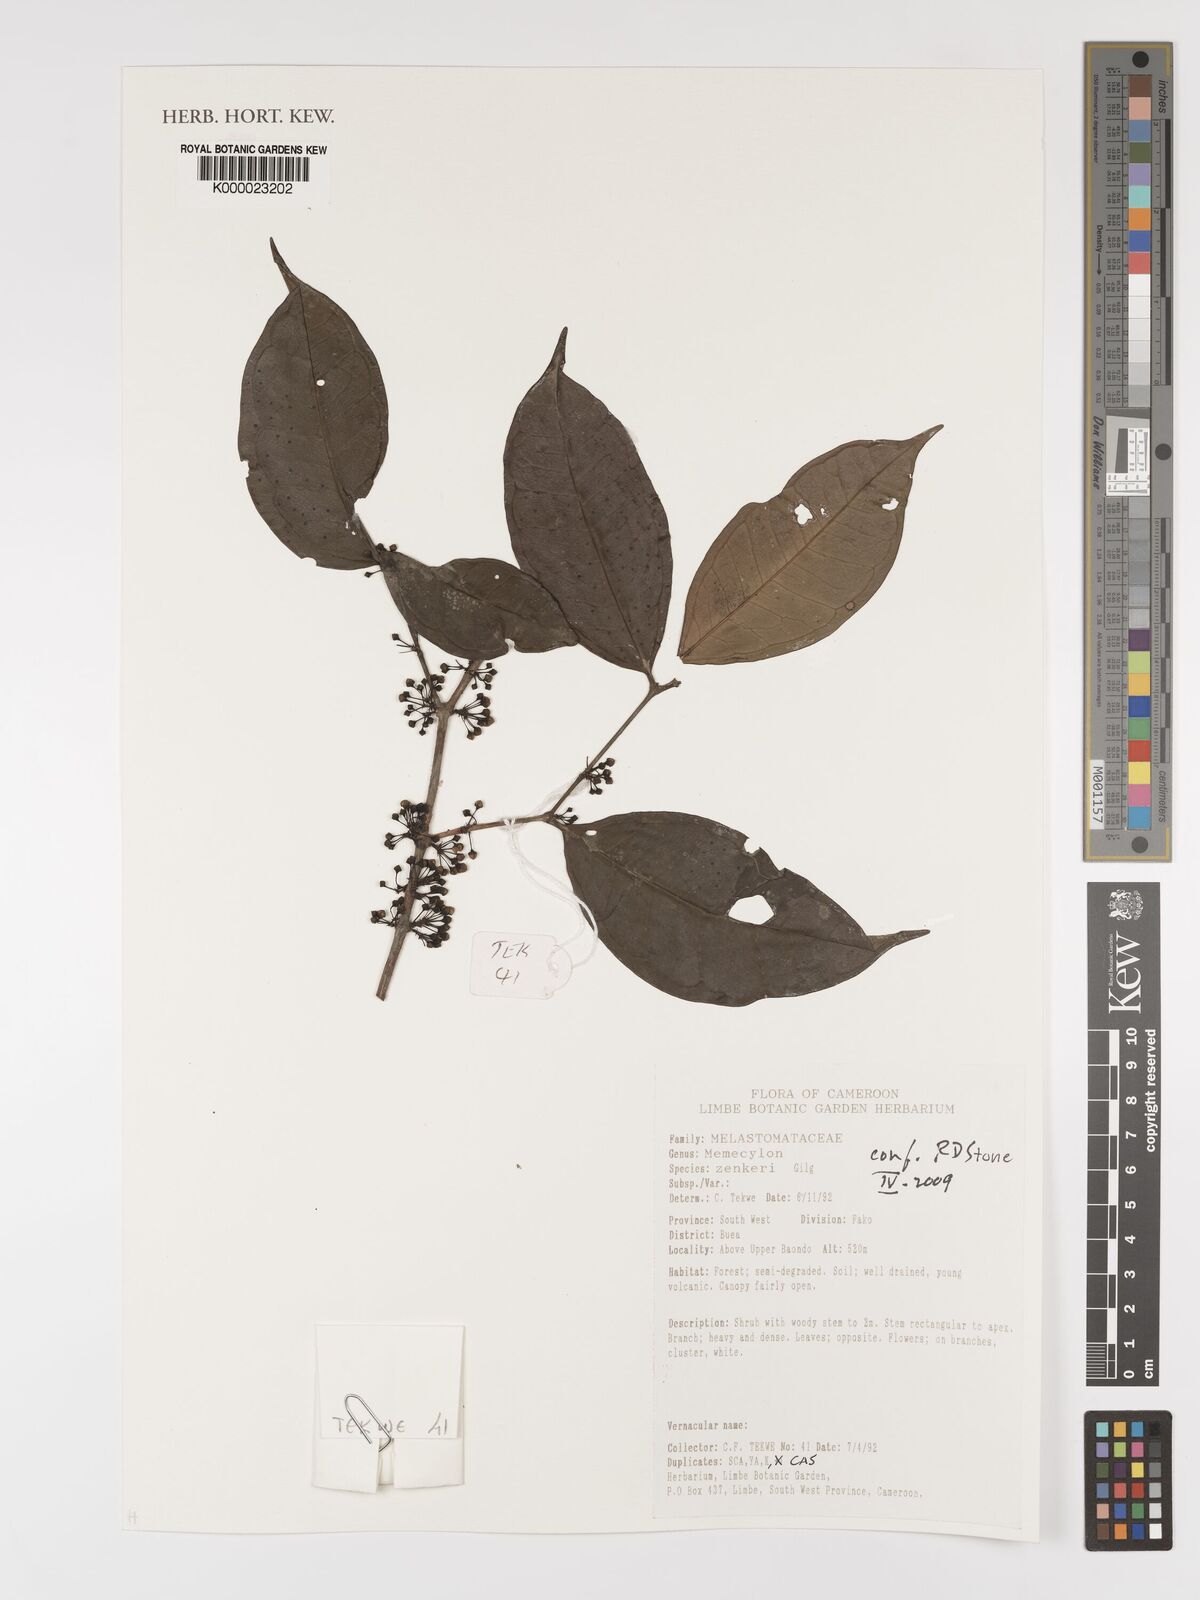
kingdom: Plantae
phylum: Tracheophyta
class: Magnoliopsida
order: Myrtales
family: Melastomataceae
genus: Memecylon
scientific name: Memecylon zenkeri
